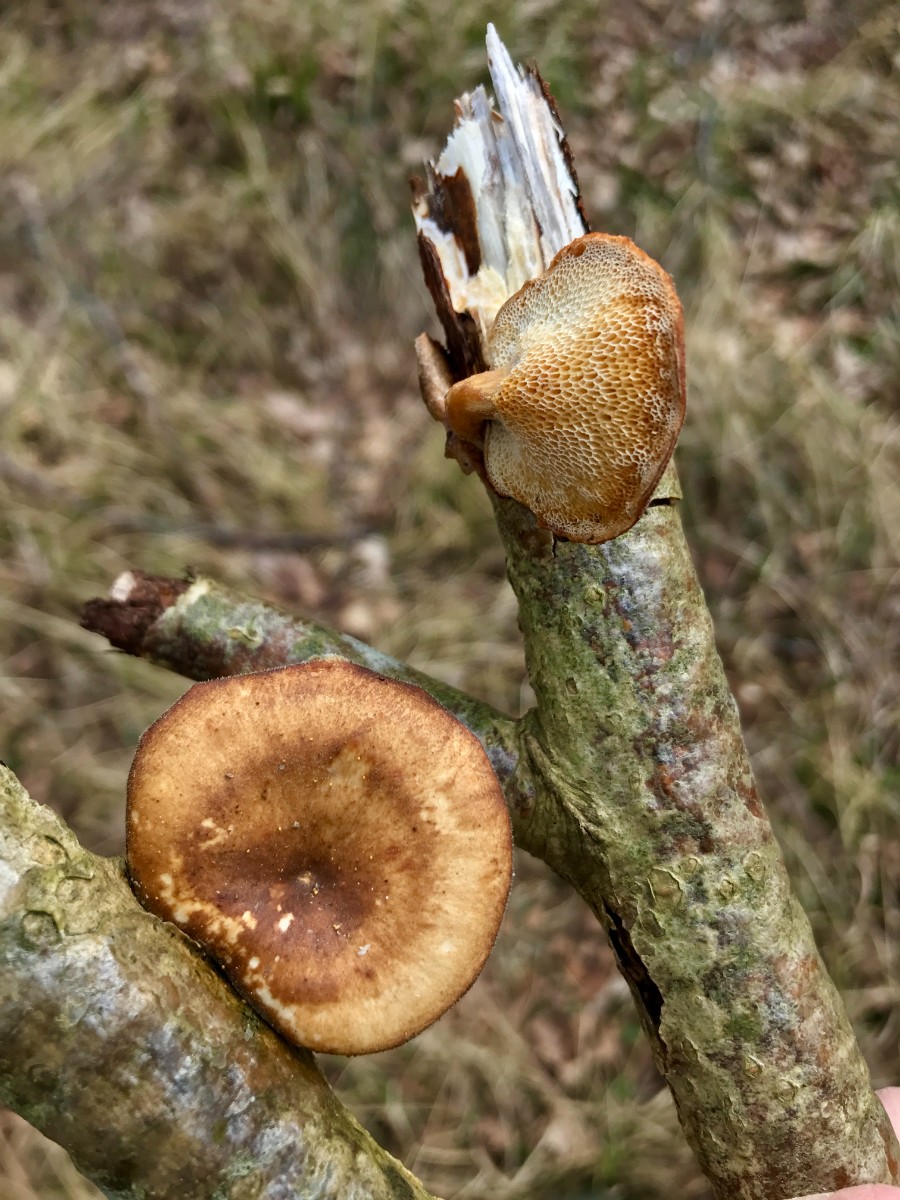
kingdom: Fungi
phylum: Basidiomycota
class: Agaricomycetes
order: Polyporales
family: Polyporaceae
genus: Lentinus
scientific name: Lentinus brumalis
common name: vinter-stilkporesvamp
